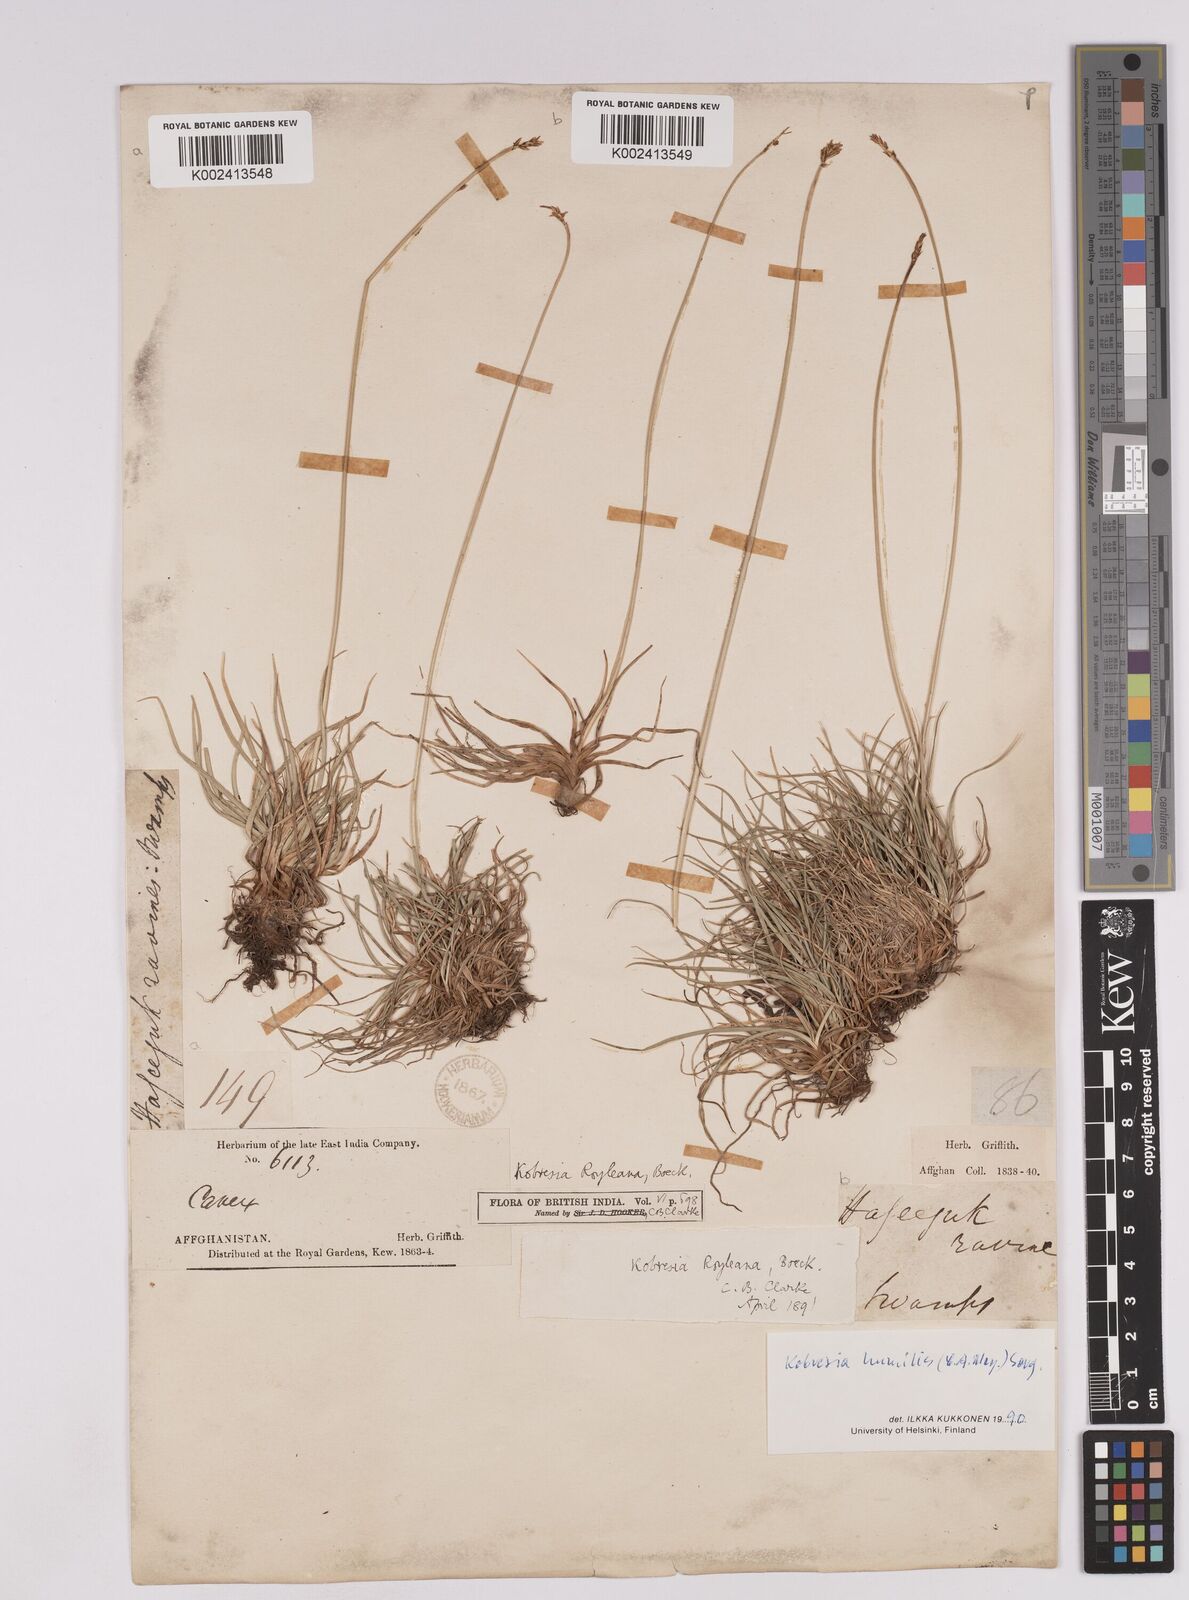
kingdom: Plantae
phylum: Tracheophyta
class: Liliopsida
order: Poales
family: Cyperaceae
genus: Carex
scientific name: Carex alatauensis
